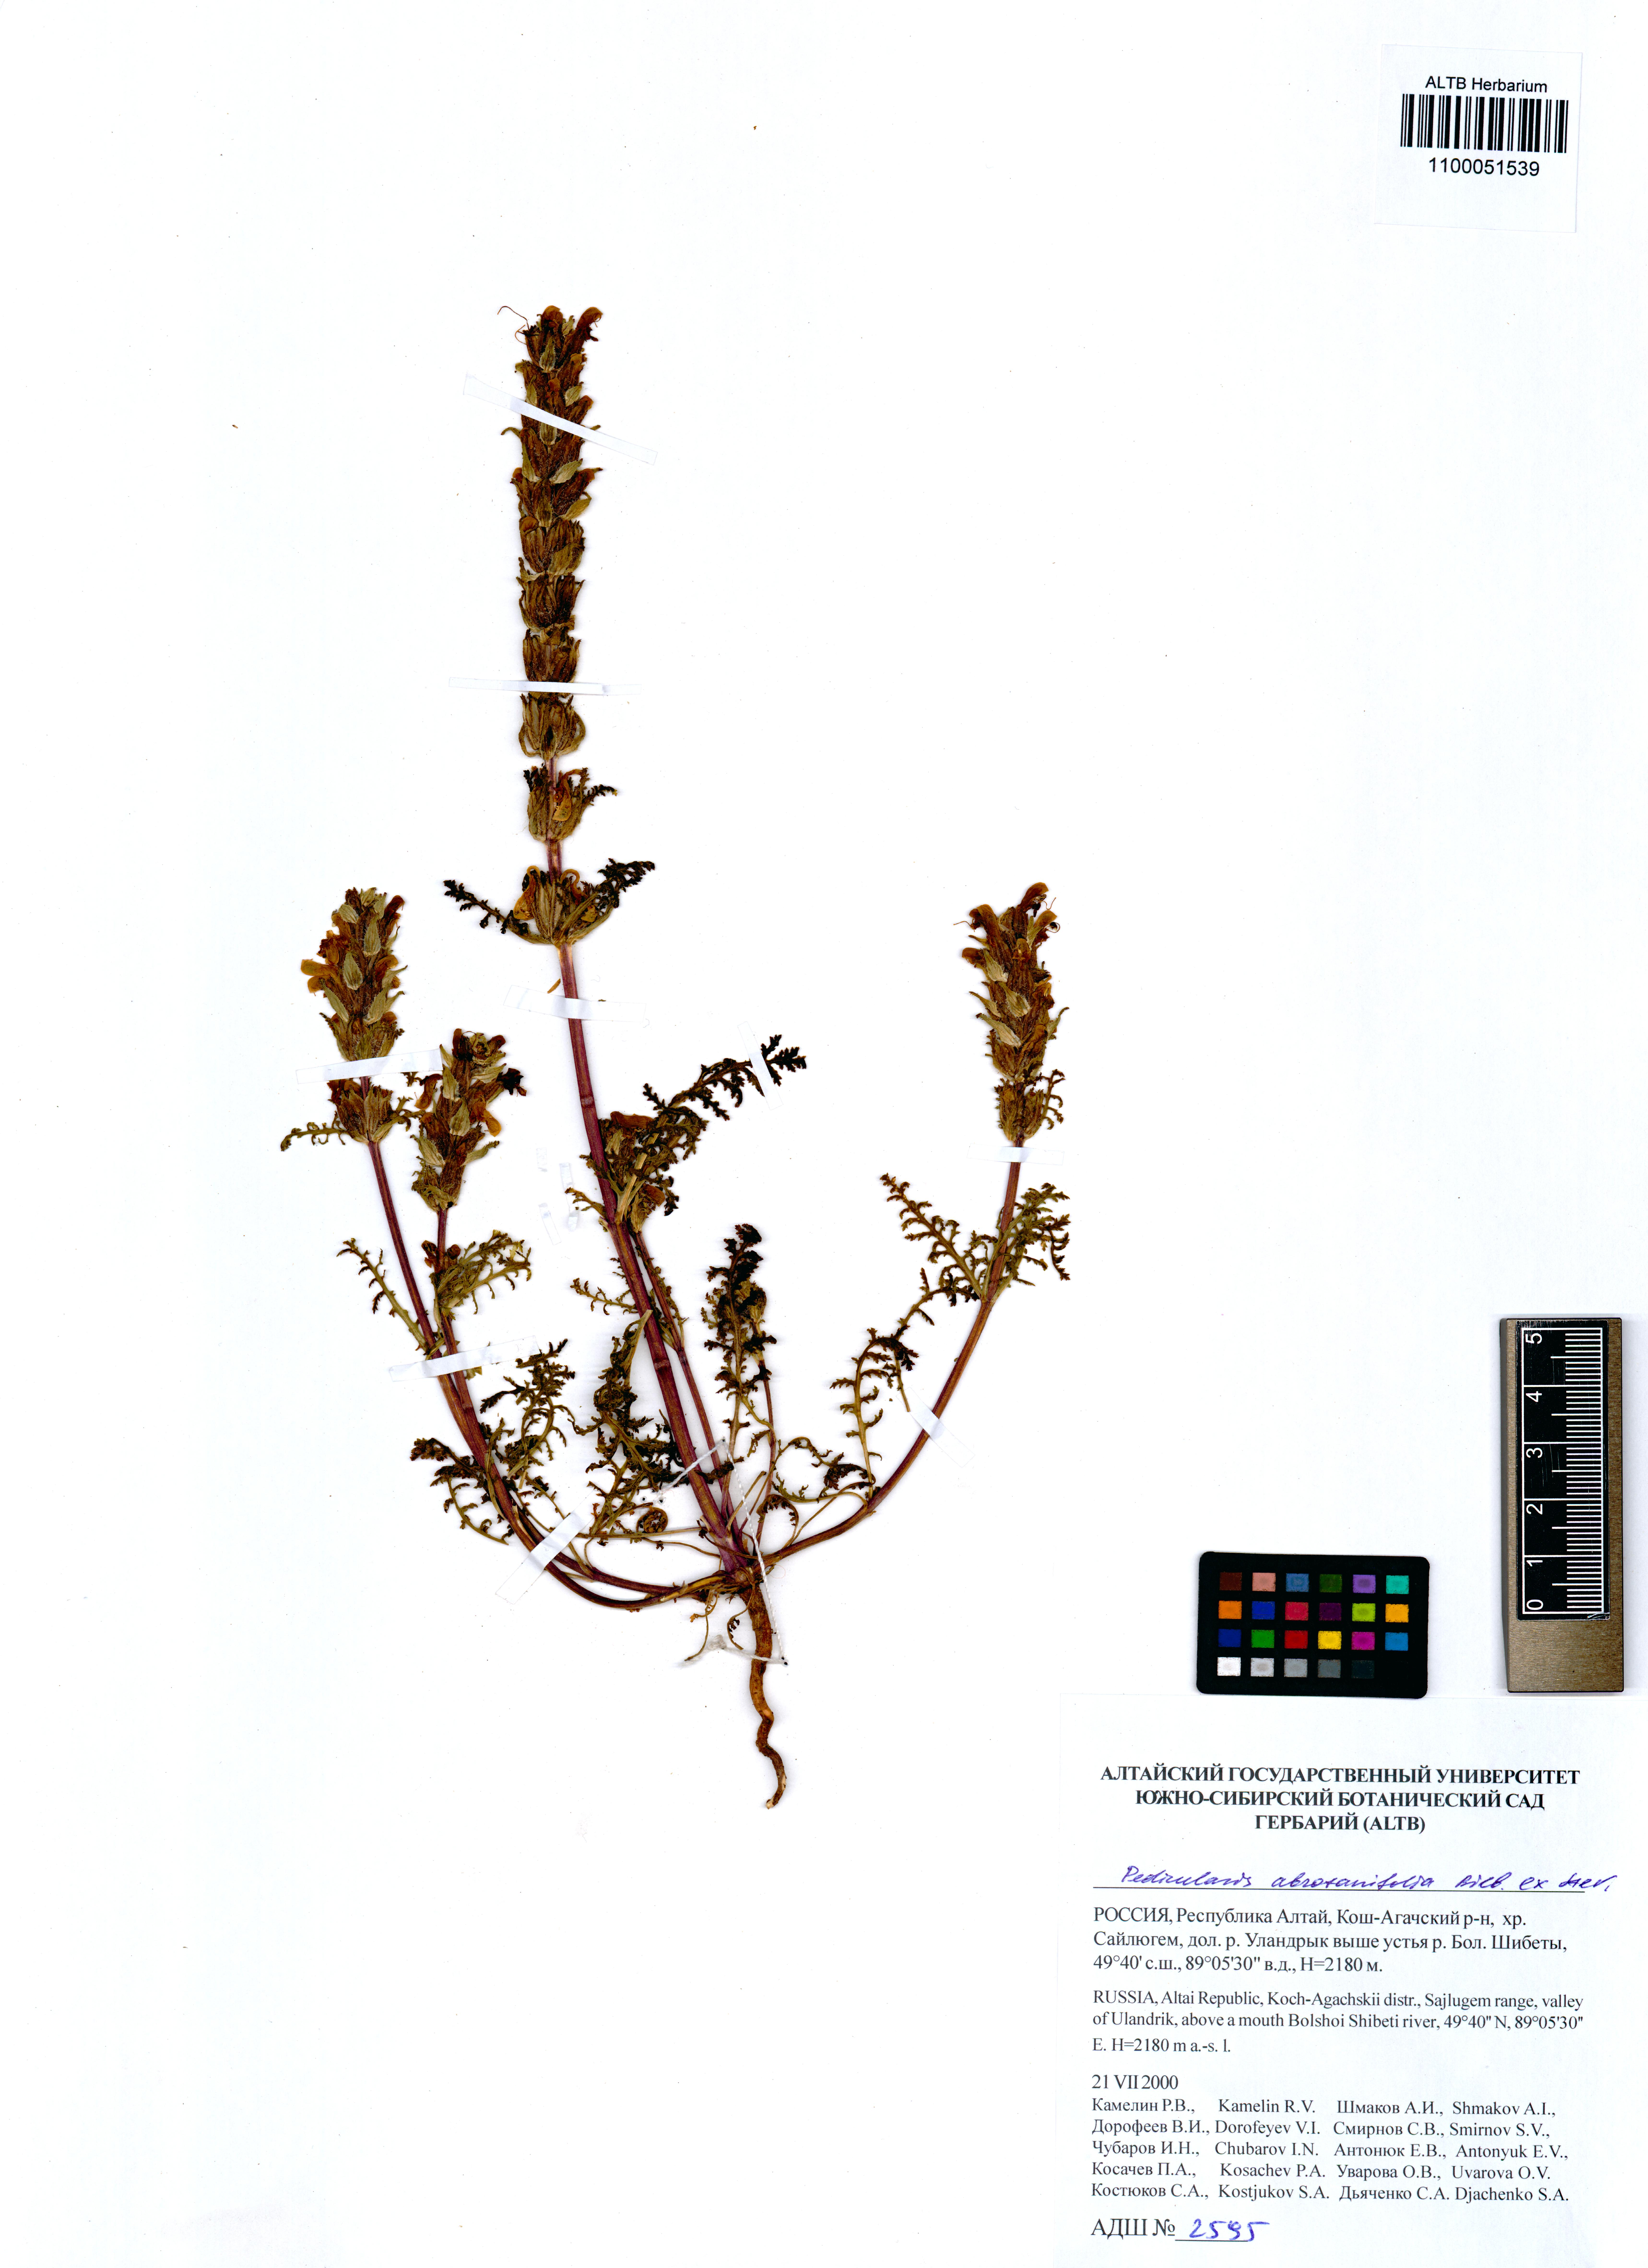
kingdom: Plantae
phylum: Tracheophyta
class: Magnoliopsida
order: Lamiales
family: Orobanchaceae
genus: Pedicularis
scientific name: Pedicularis abrotanifolia
